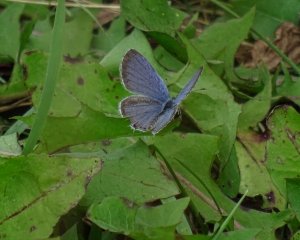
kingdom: Animalia
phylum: Arthropoda
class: Insecta
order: Lepidoptera
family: Lycaenidae
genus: Elkalyce
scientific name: Elkalyce comyntas
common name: Eastern Tailed-Blue
